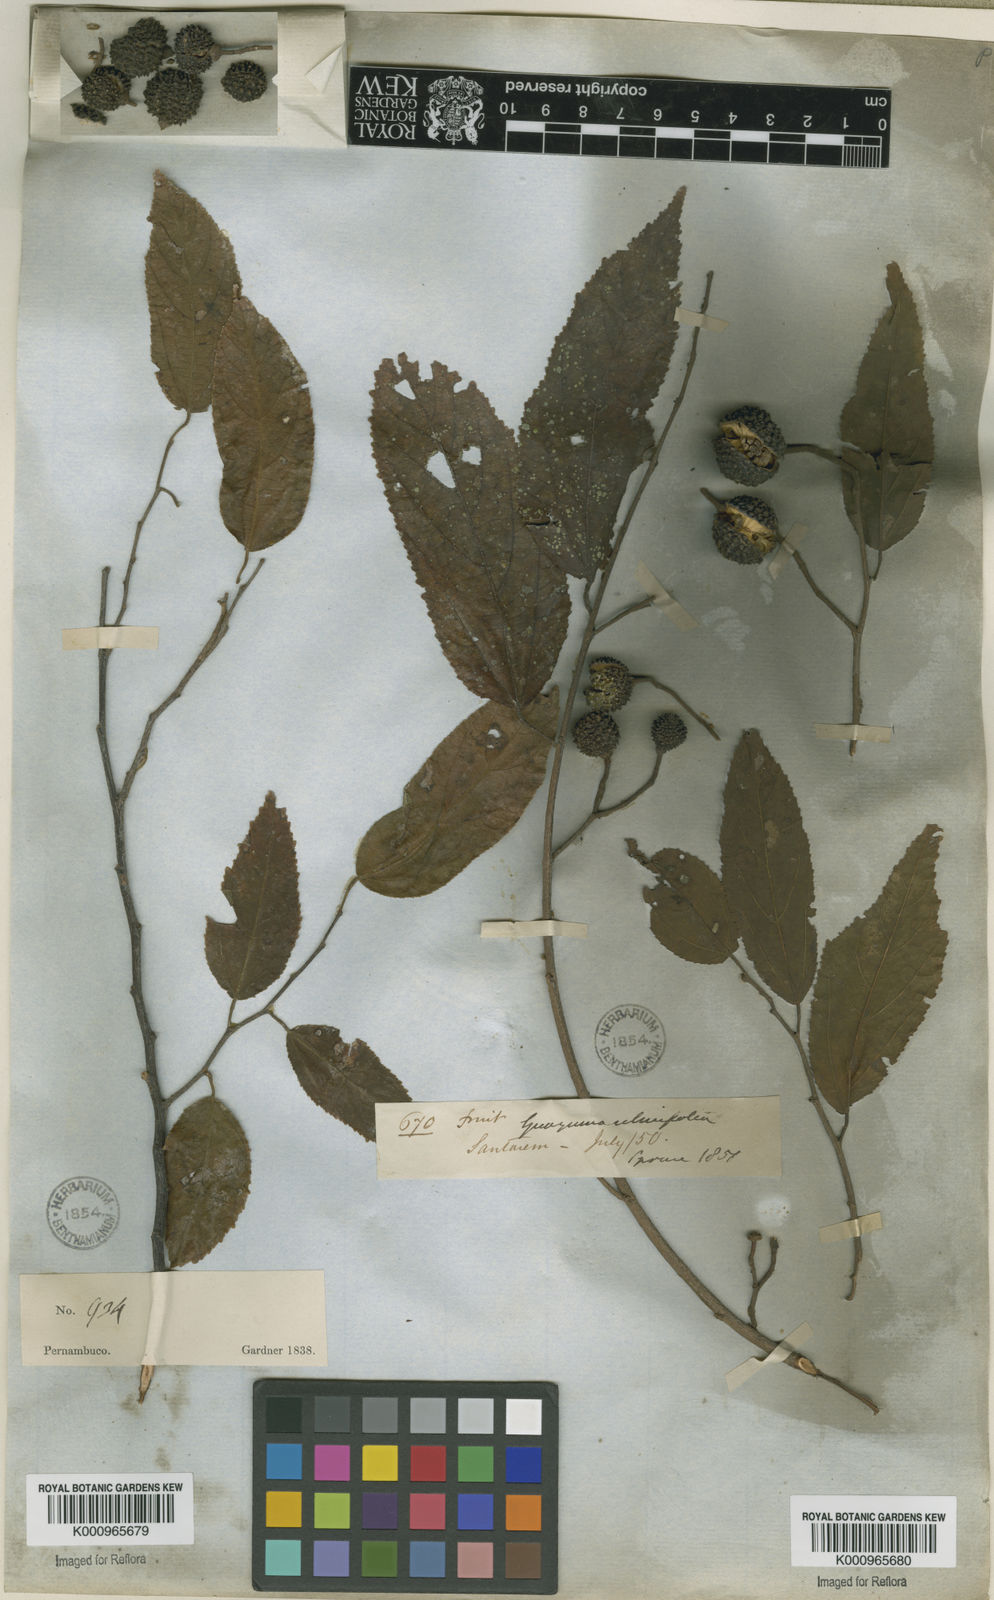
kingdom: Plantae
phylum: Tracheophyta
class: Magnoliopsida
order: Malvales
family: Malvaceae
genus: Guazuma
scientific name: Guazuma ulmifolia
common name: Bastard-cedar
